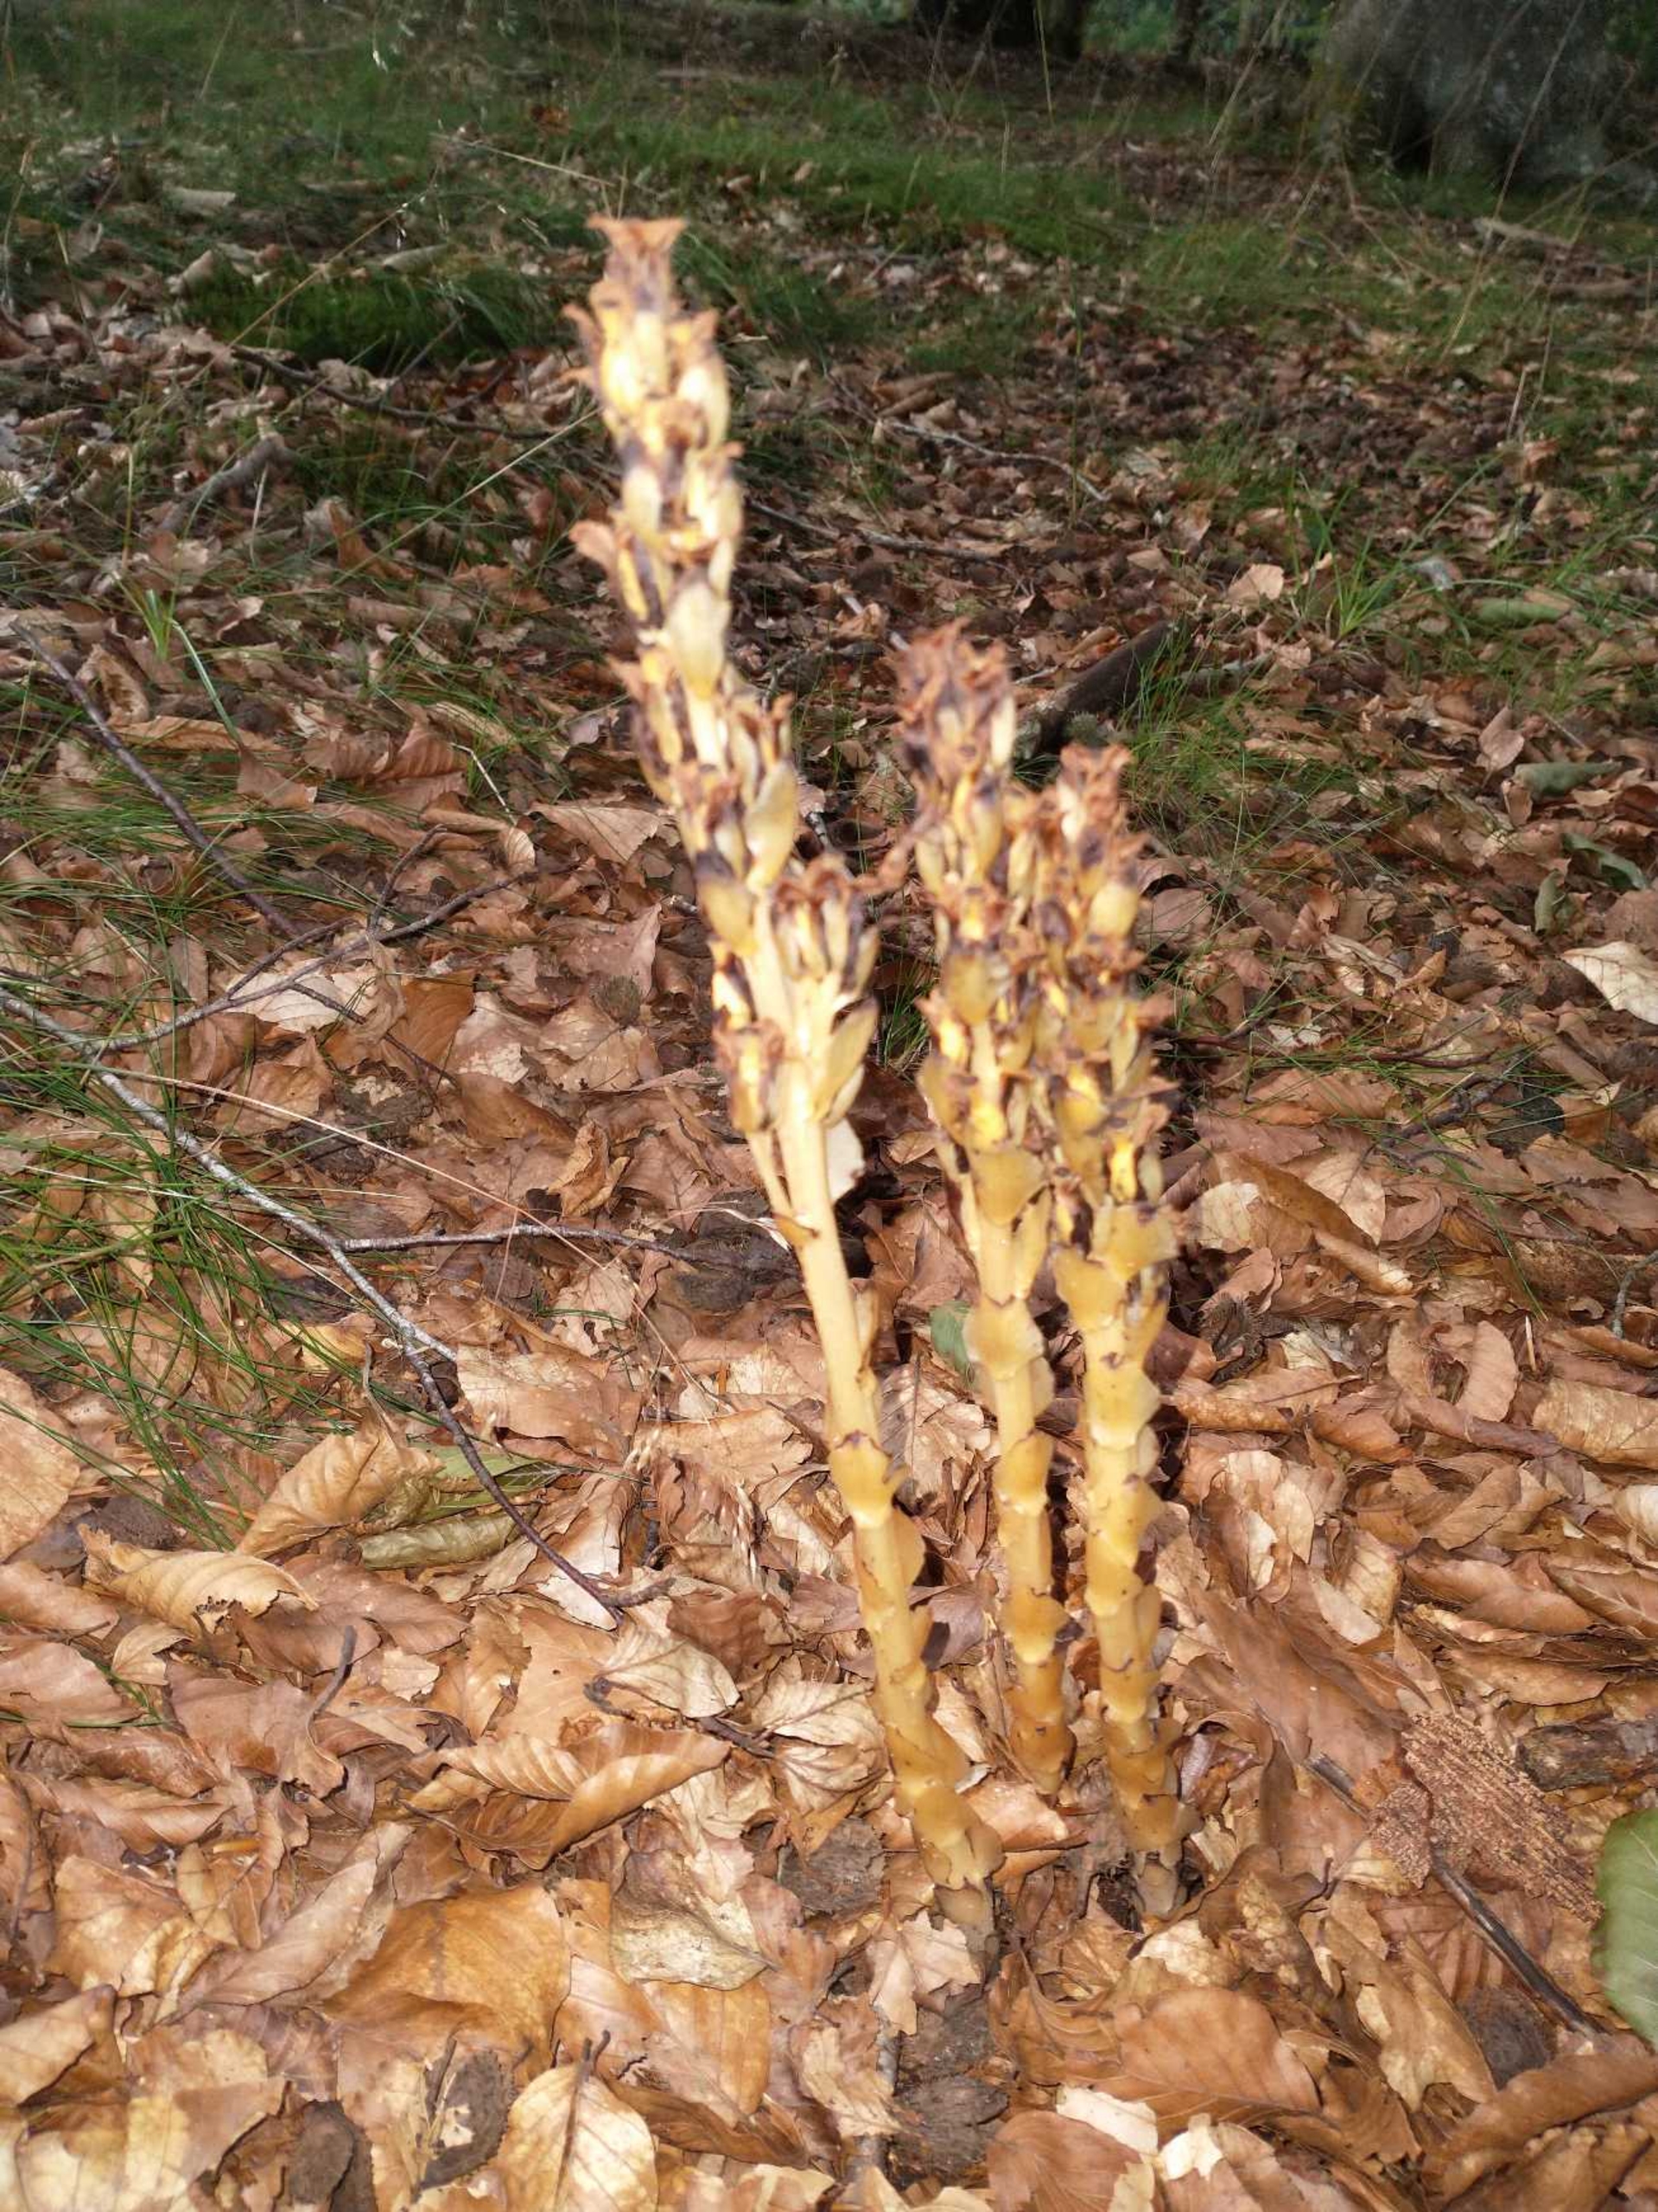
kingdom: Plantae
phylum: Tracheophyta
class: Magnoliopsida
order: Ericales
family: Ericaceae
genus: Hypopitys
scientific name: Hypopitys monotropa
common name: Snylterod
